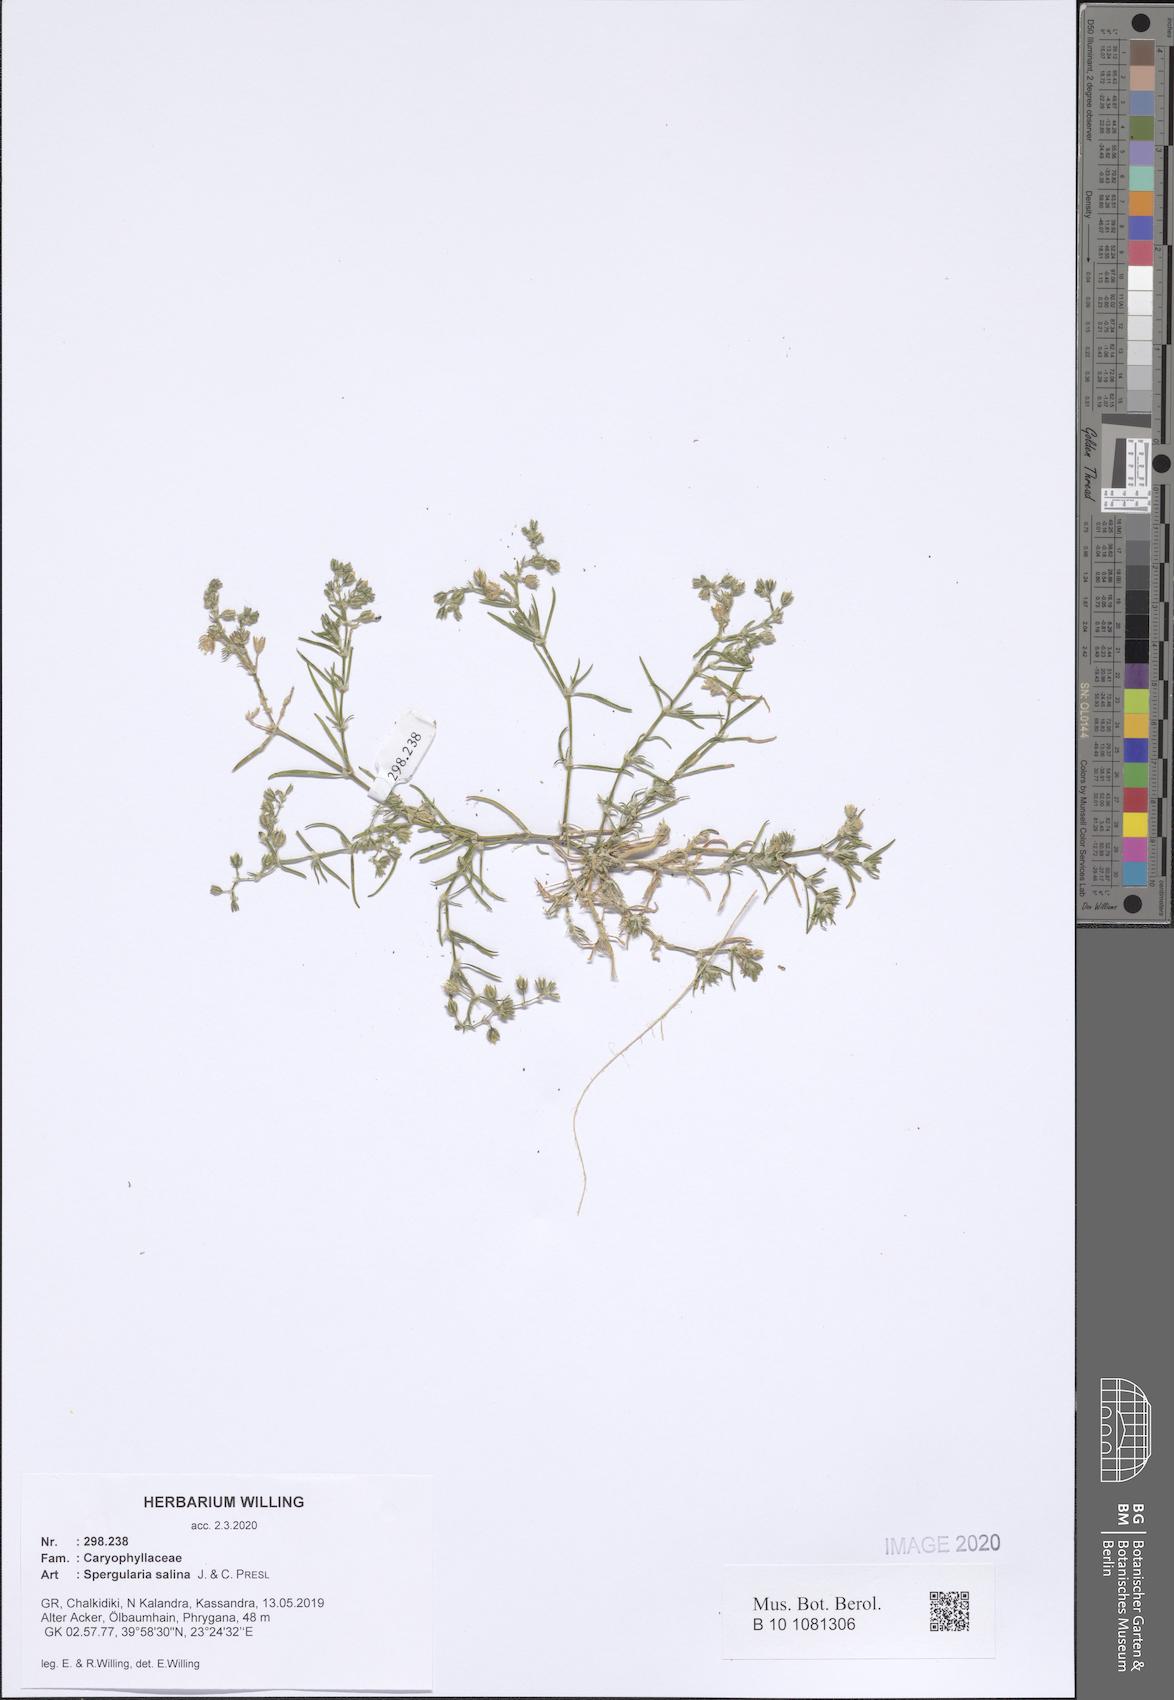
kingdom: Plantae
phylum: Tracheophyta
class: Magnoliopsida
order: Caryophyllales
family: Caryophyllaceae
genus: Spergularia
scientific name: Spergularia marina
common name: Lesser sea-spurrey
